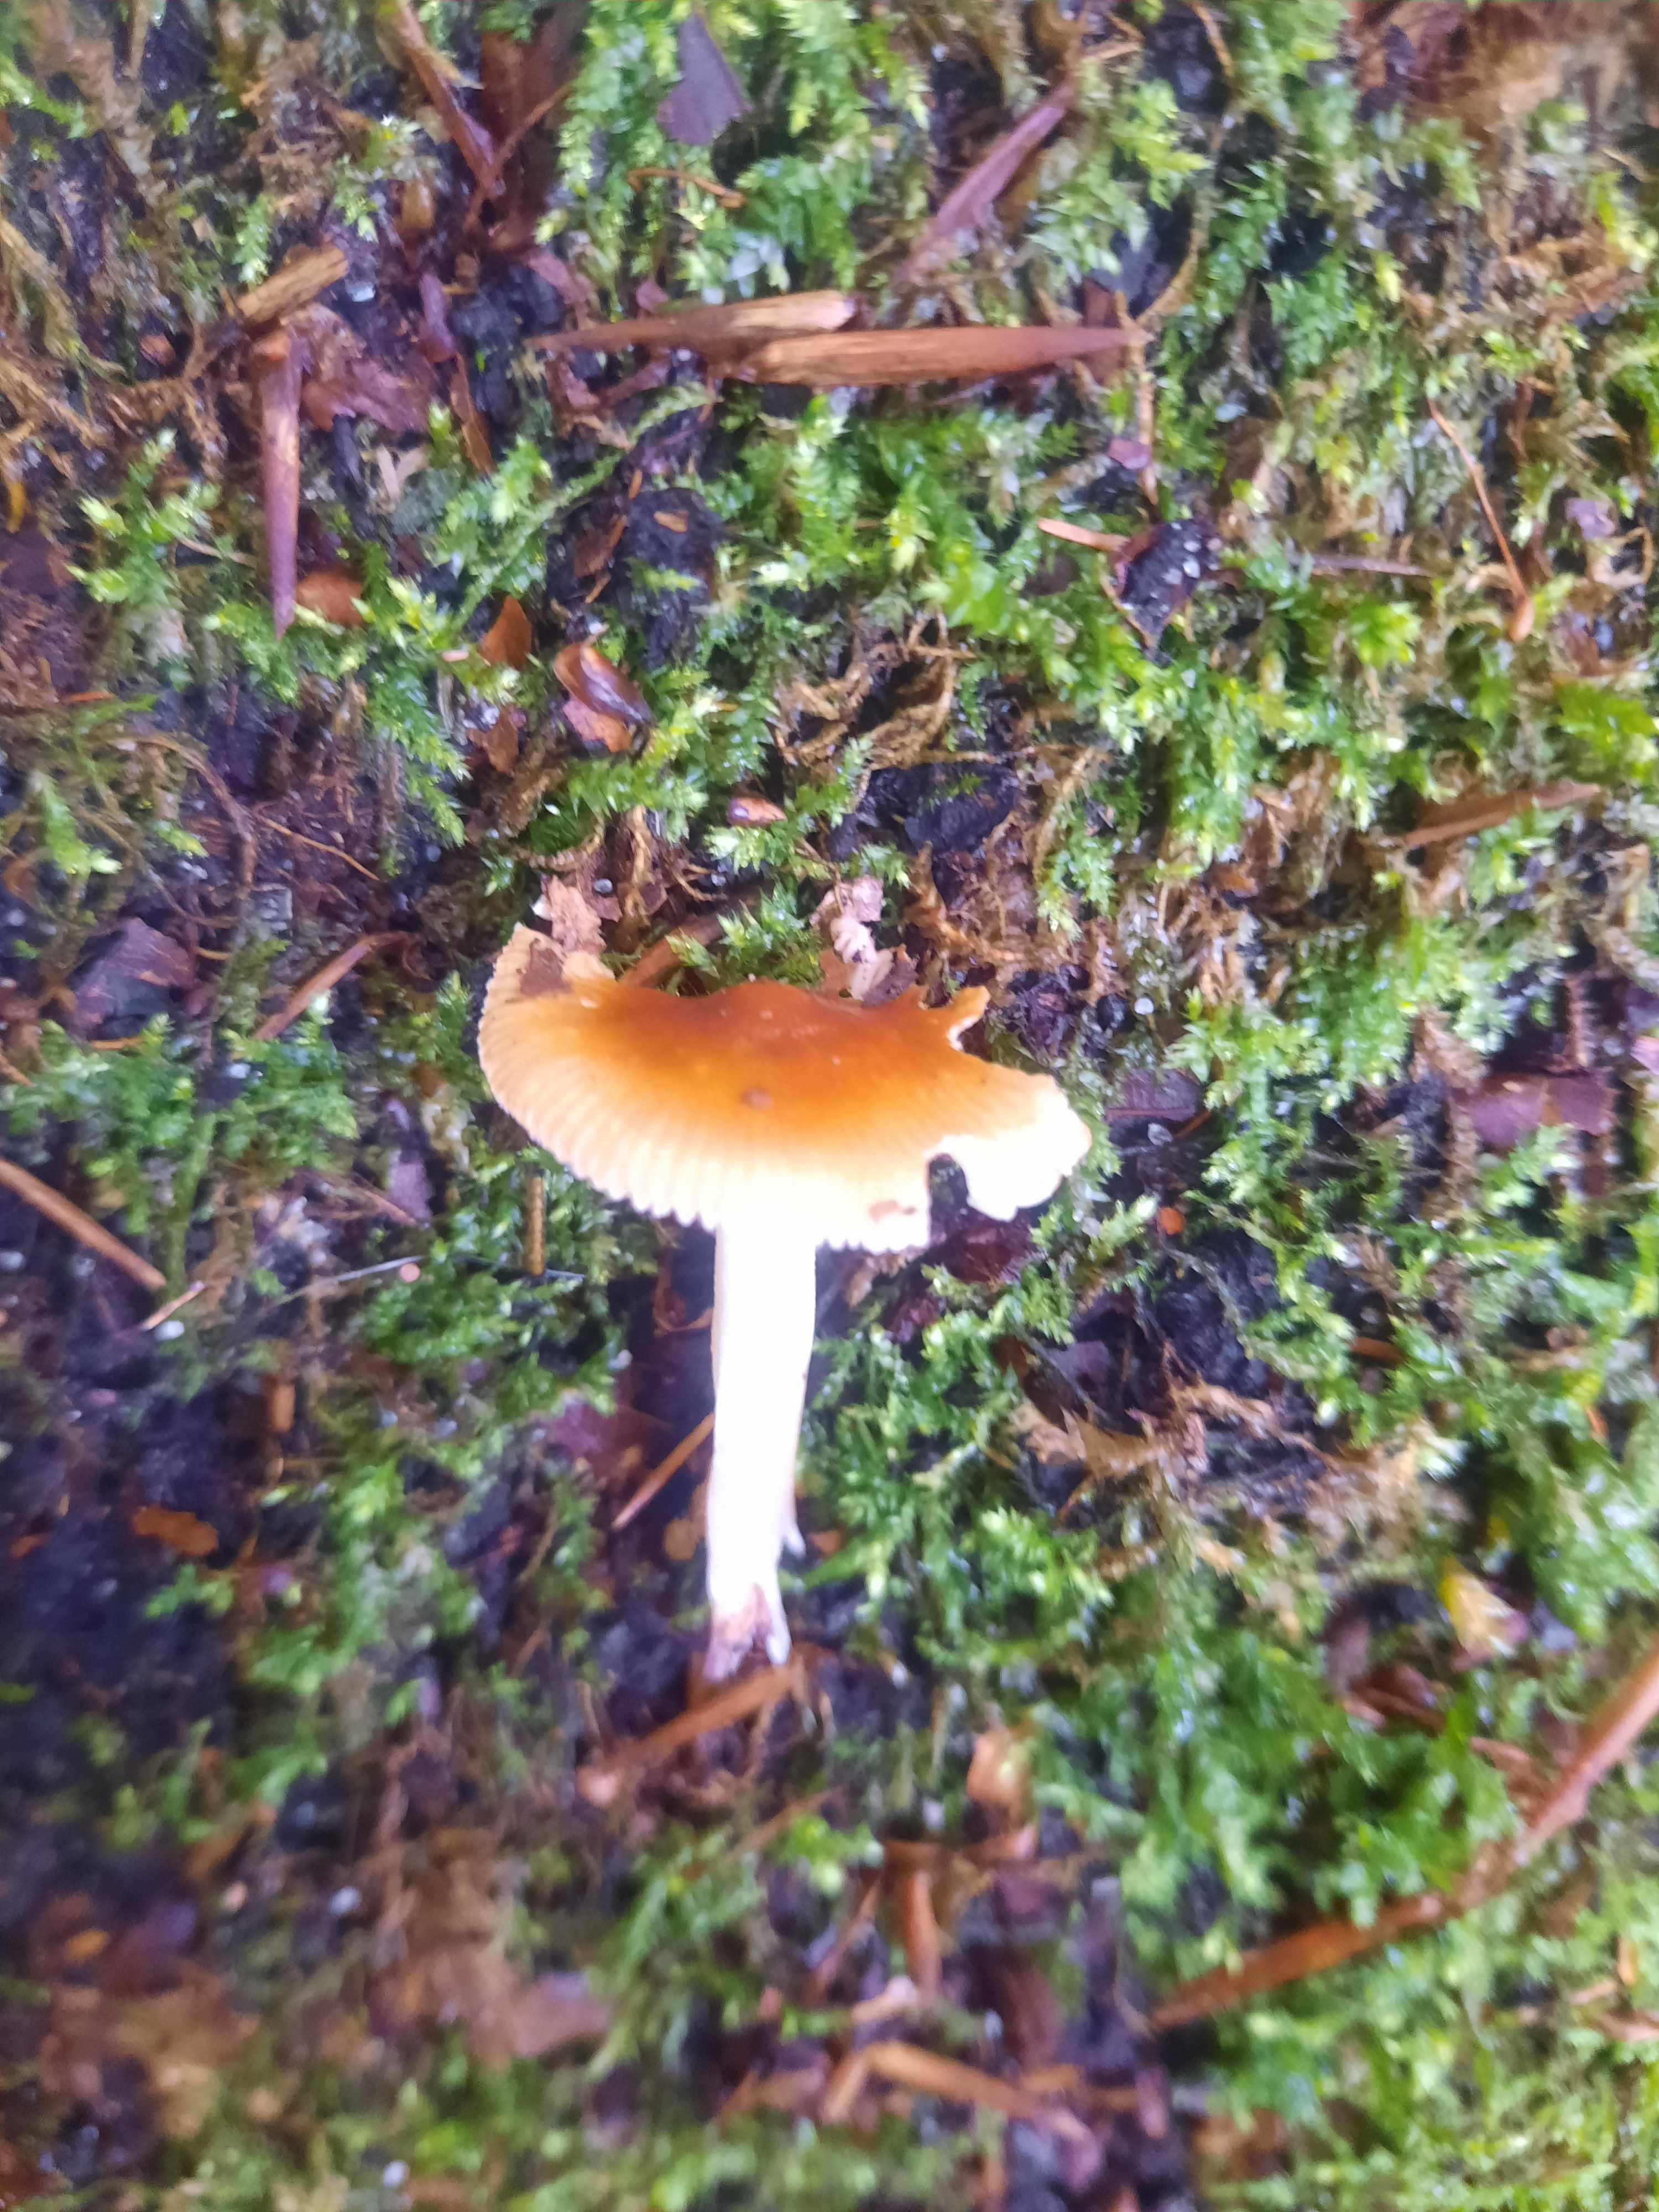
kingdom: Fungi
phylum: Basidiomycota
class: Agaricomycetes
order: Agaricales
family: Amanitaceae
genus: Amanita
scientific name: Amanita fulva
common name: brun kam-fluesvamp
